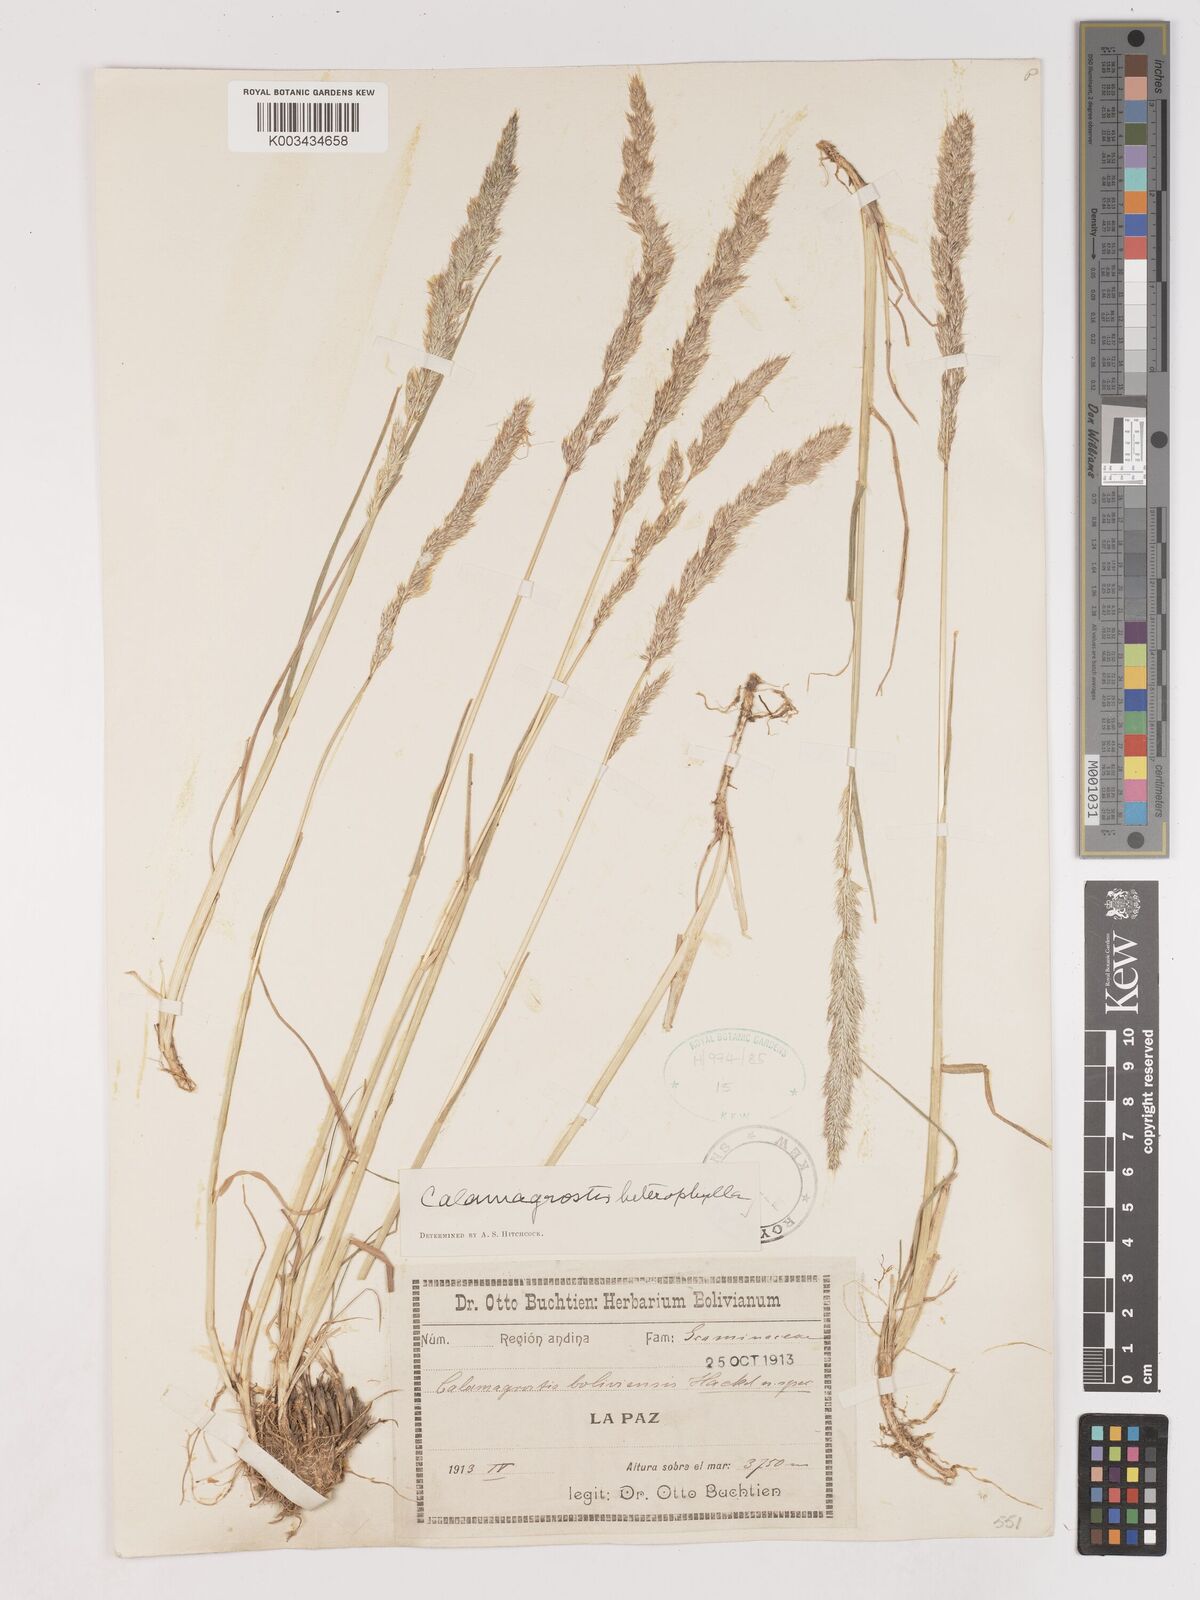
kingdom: Plantae
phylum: Tracheophyta
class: Liliopsida
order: Poales
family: Poaceae
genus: Cinnagrostis
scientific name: Cinnagrostis heterophylla
